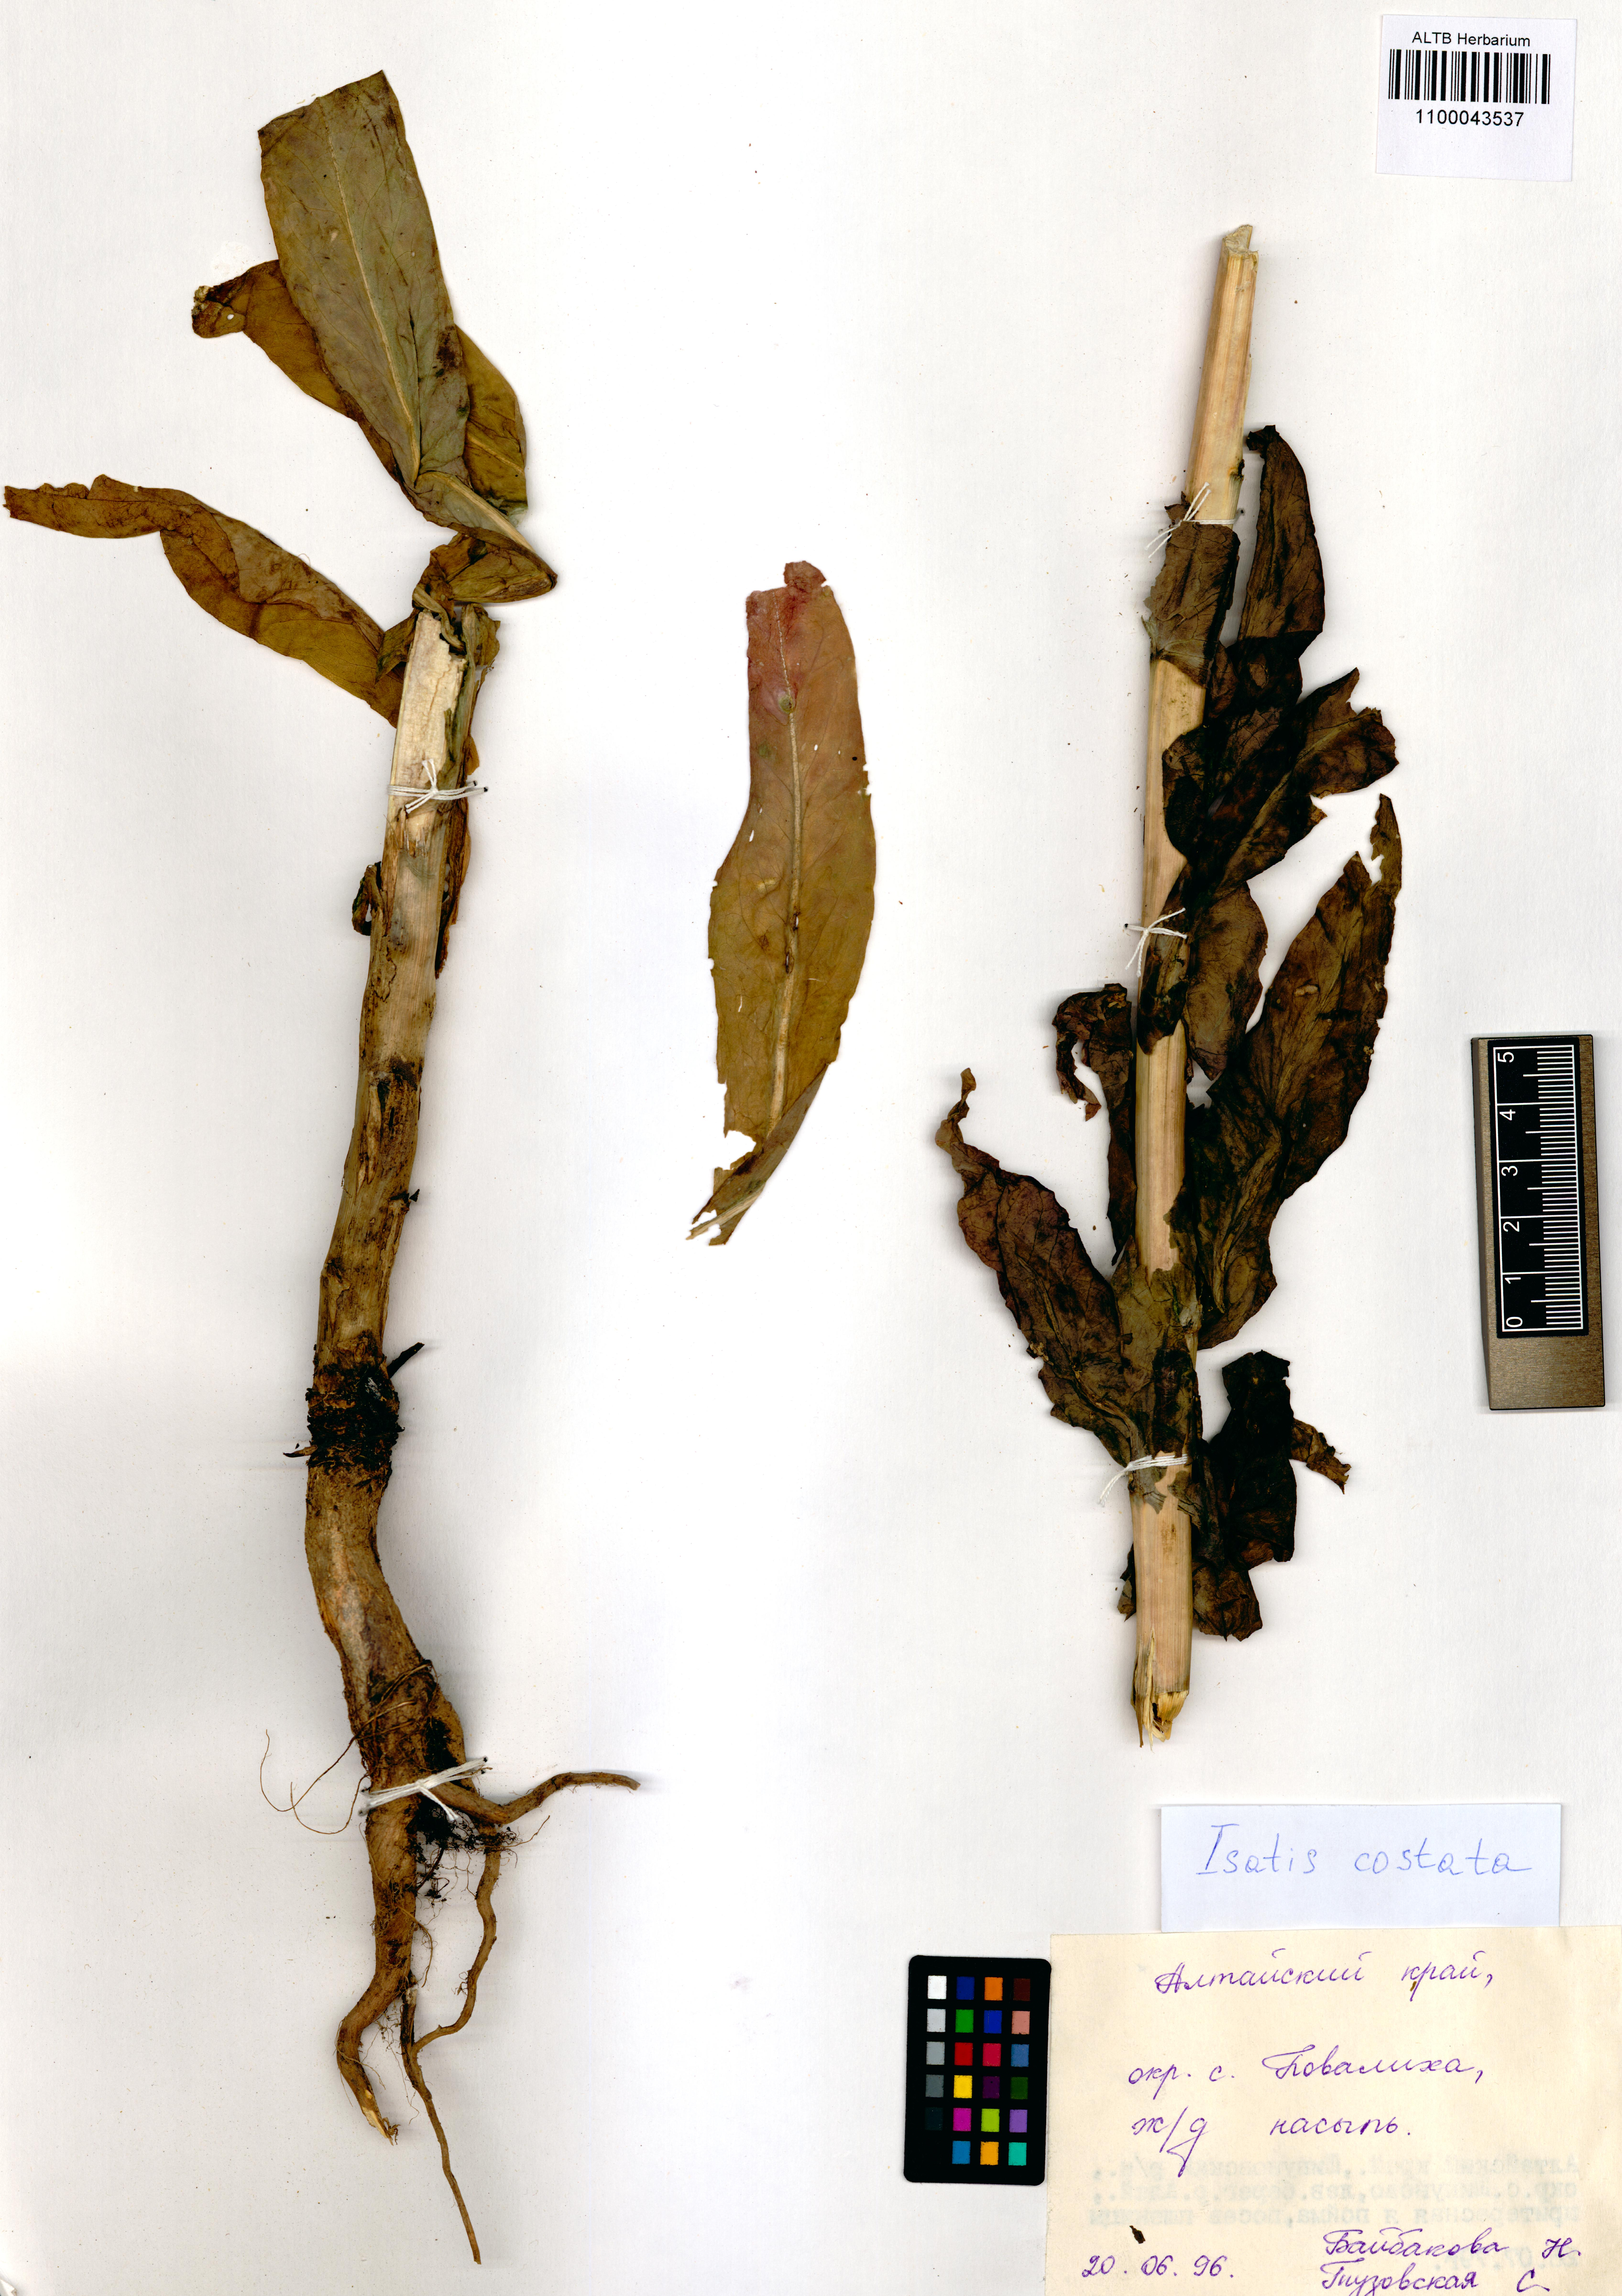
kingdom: Plantae
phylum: Tracheophyta
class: Magnoliopsida
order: Brassicales
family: Brassicaceae
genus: Isatis
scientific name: Isatis costata
